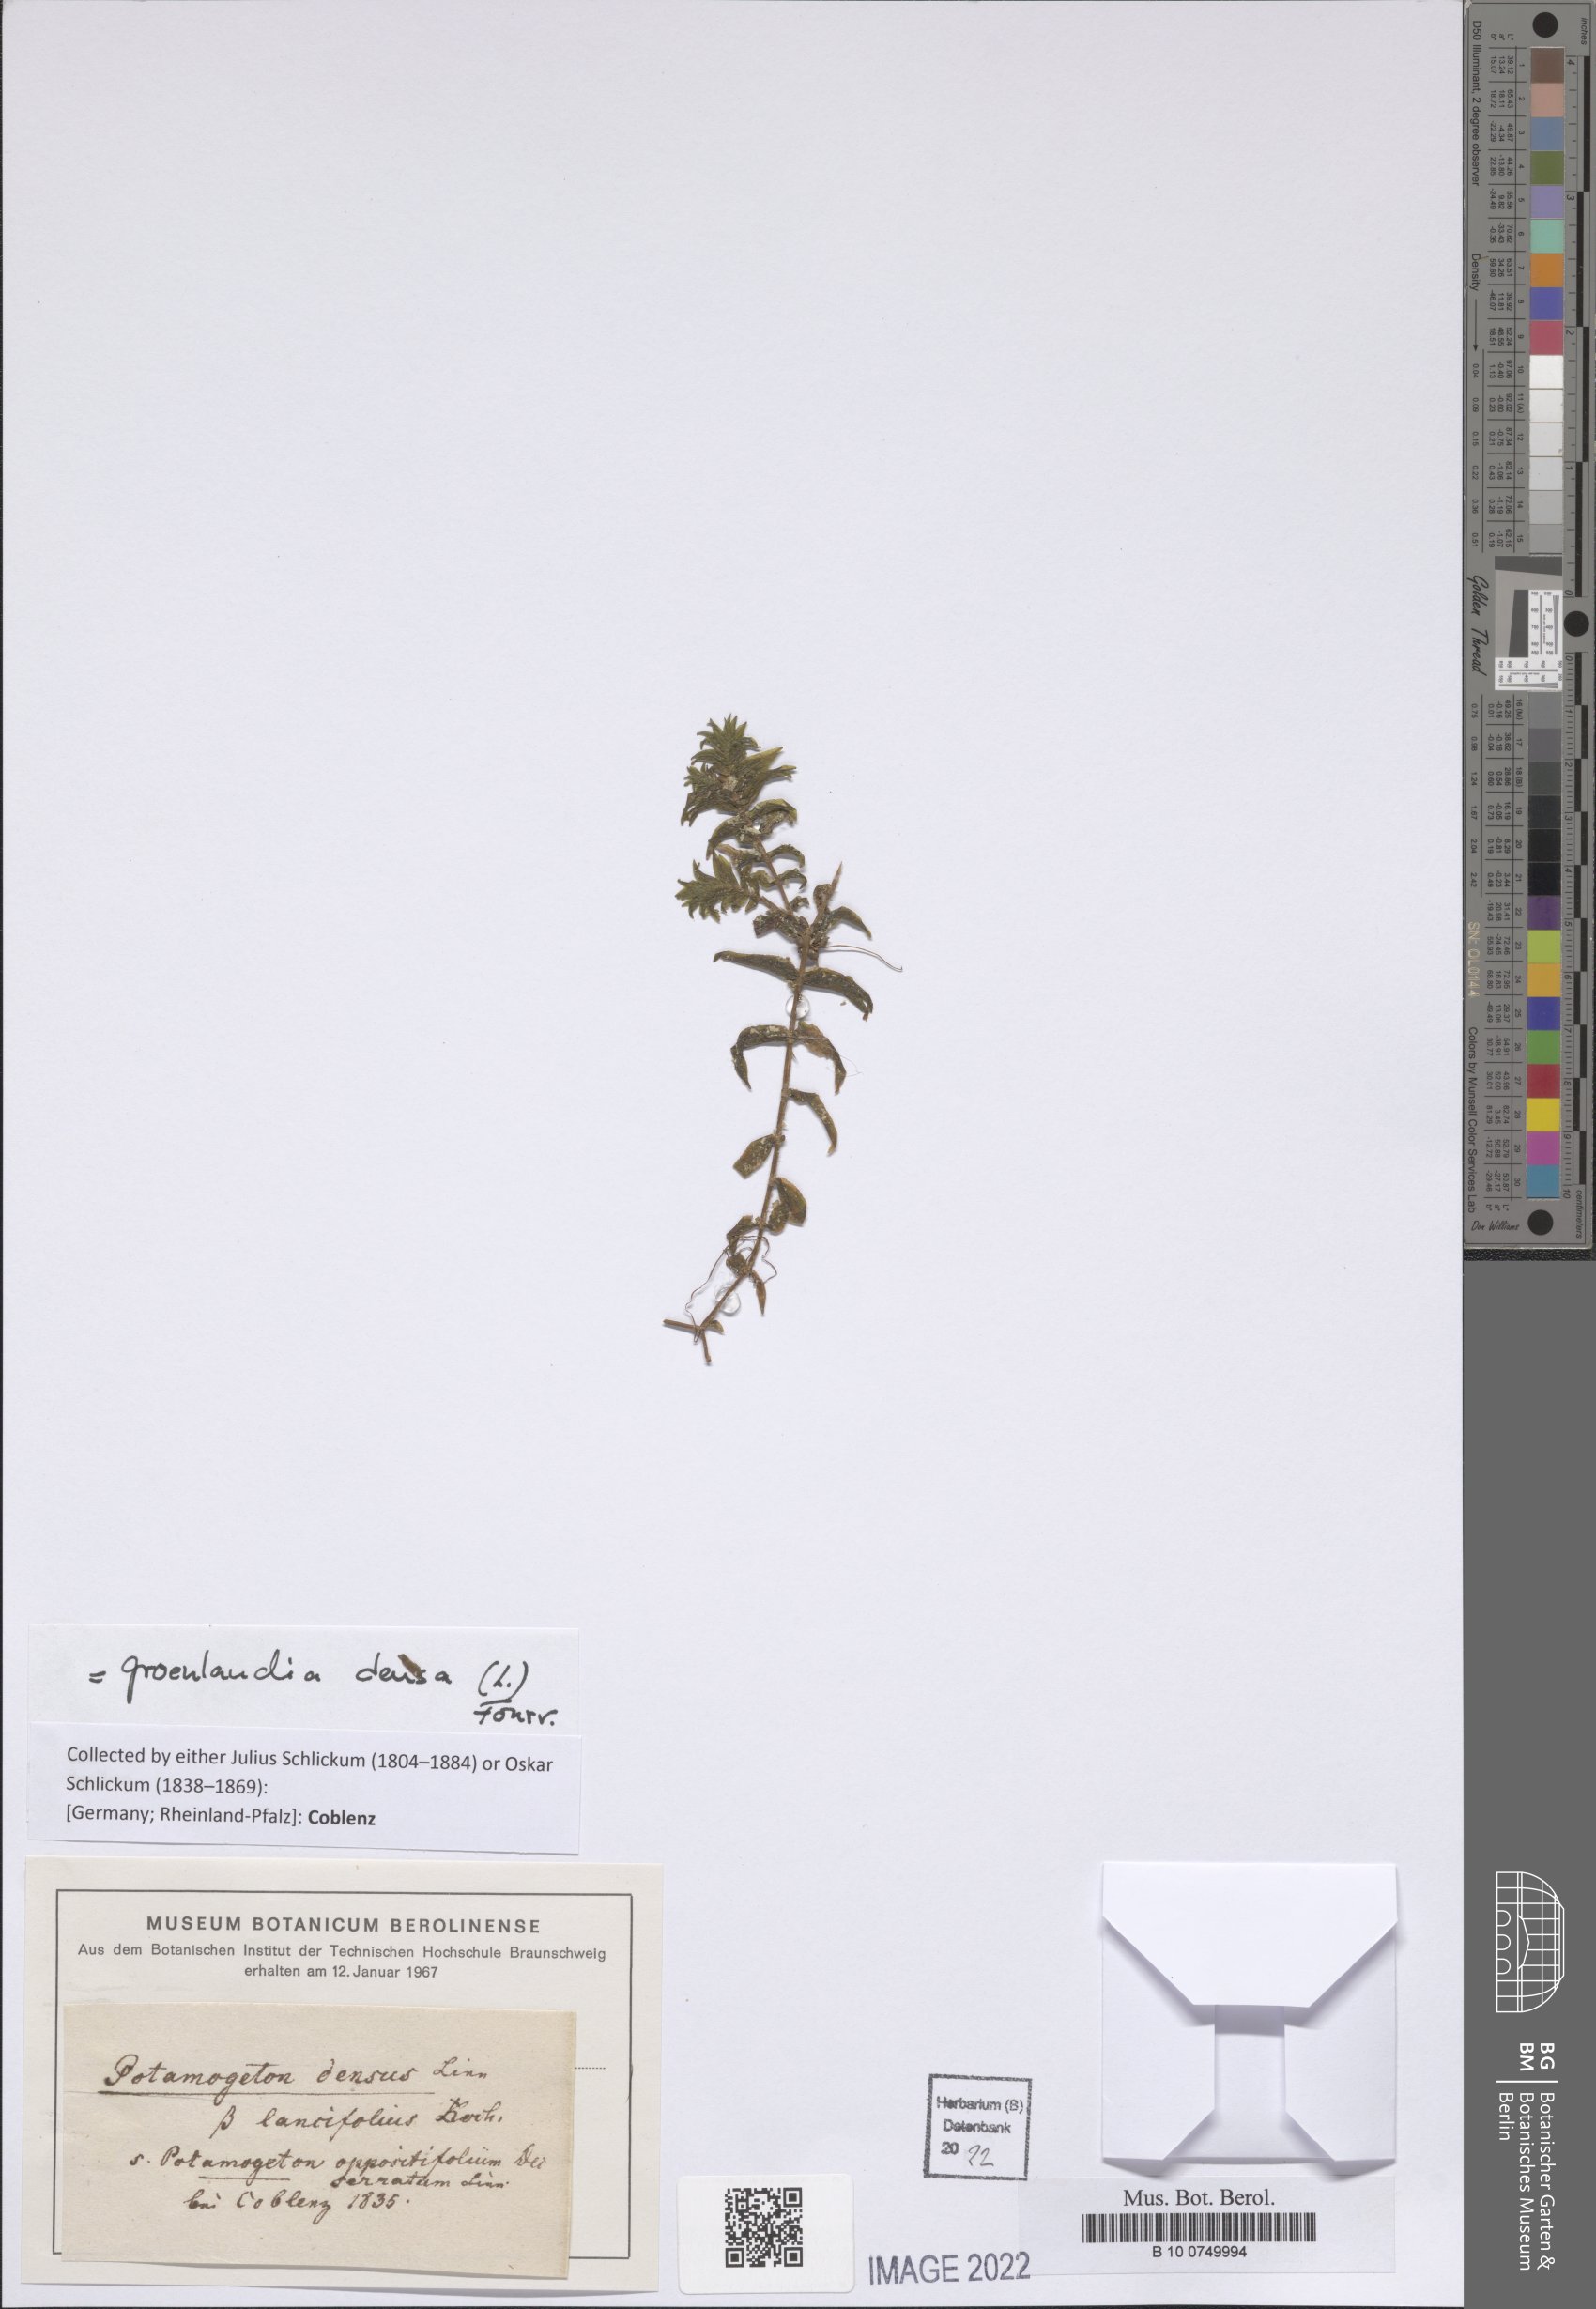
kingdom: Plantae
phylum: Tracheophyta
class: Liliopsida
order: Alismatales
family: Potamogetonaceae
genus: Groenlandia
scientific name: Groenlandia densa
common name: Opposite-leaved pondweed
